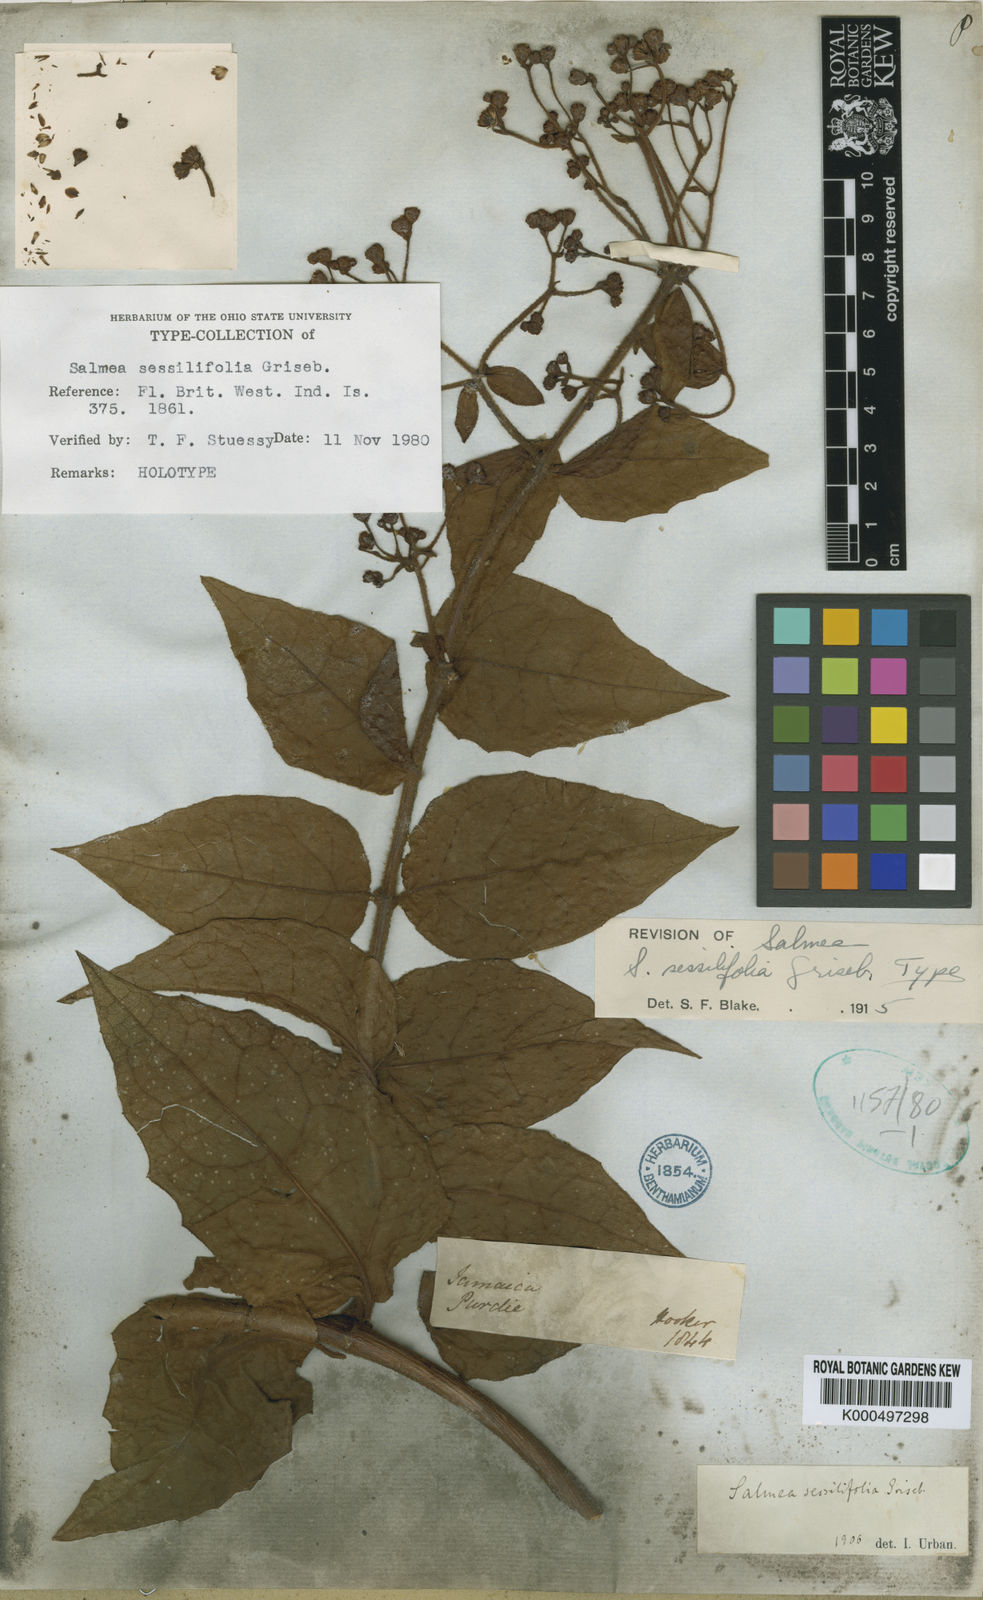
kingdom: Plantae
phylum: Tracheophyta
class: Magnoliopsida
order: Asterales
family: Asteraceae
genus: Salmea
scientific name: Salmea scandens
